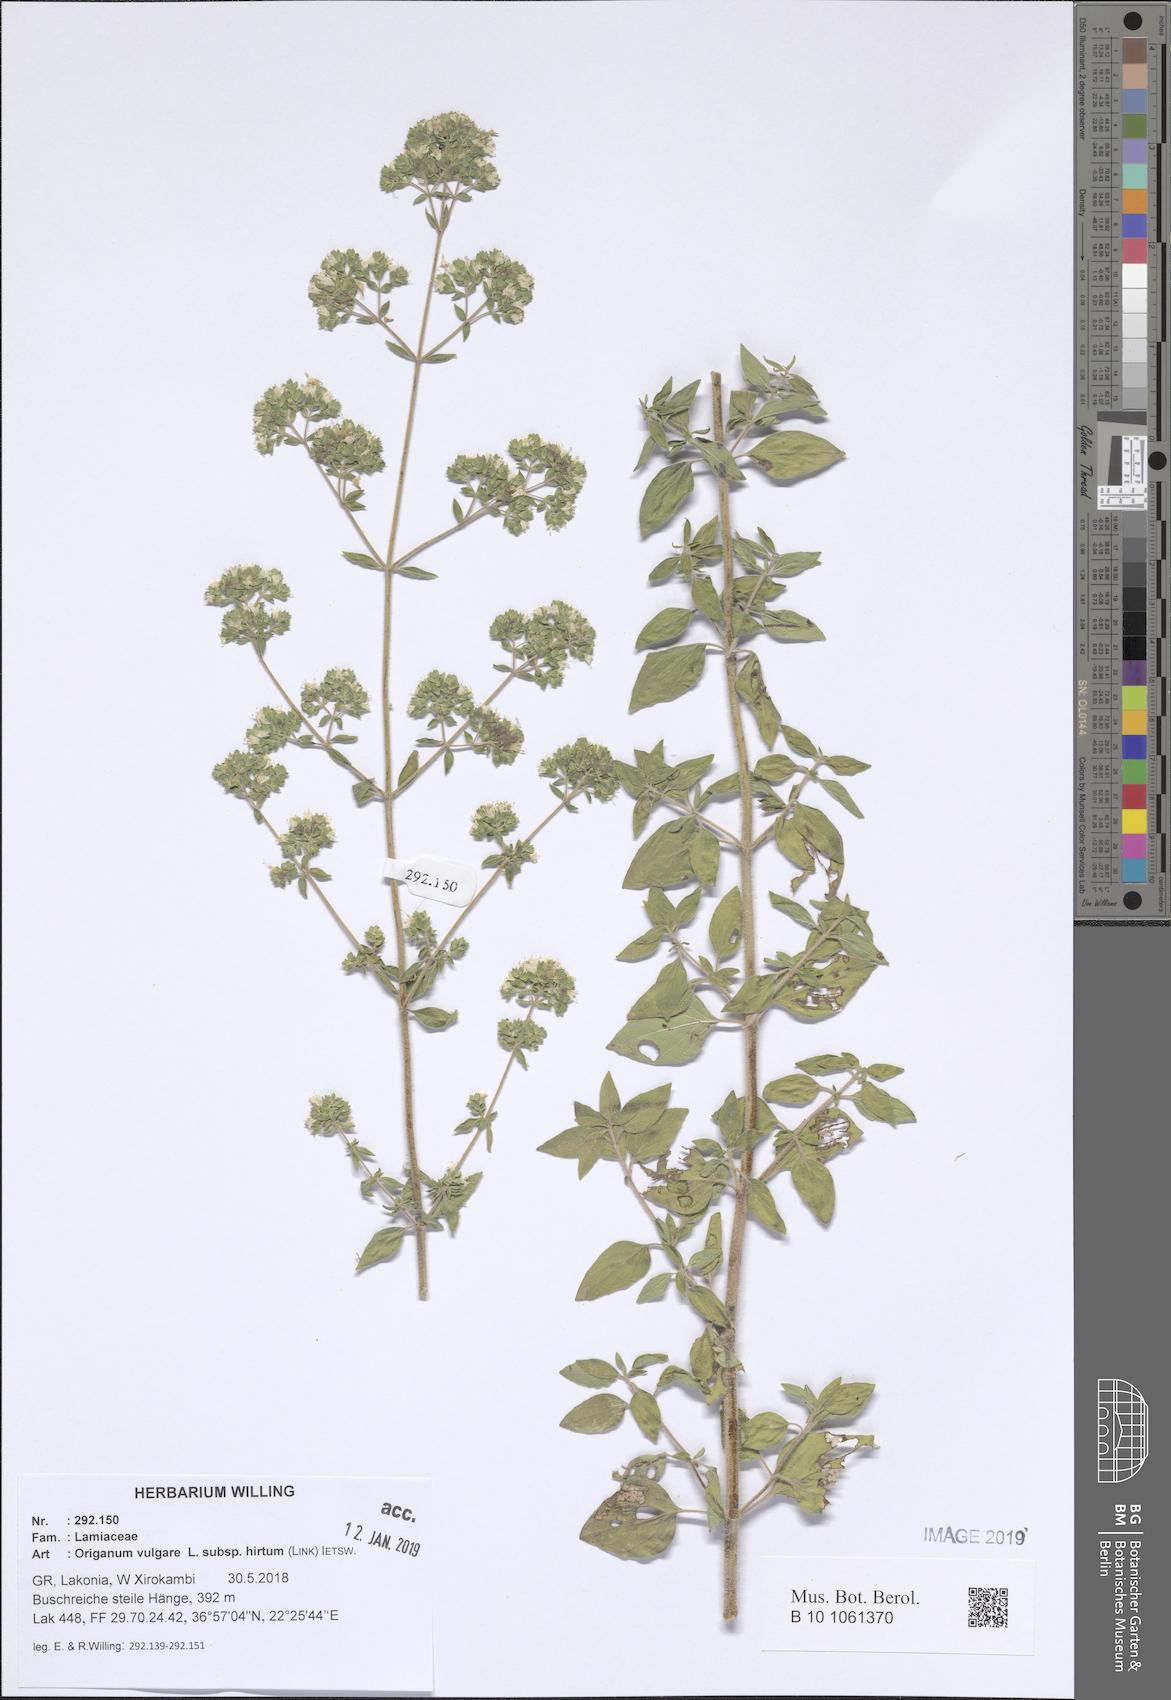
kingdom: Plantae
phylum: Tracheophyta
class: Magnoliopsida
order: Lamiales
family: Lamiaceae
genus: Origanum
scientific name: Origanum vulgare
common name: Wild marjoram
